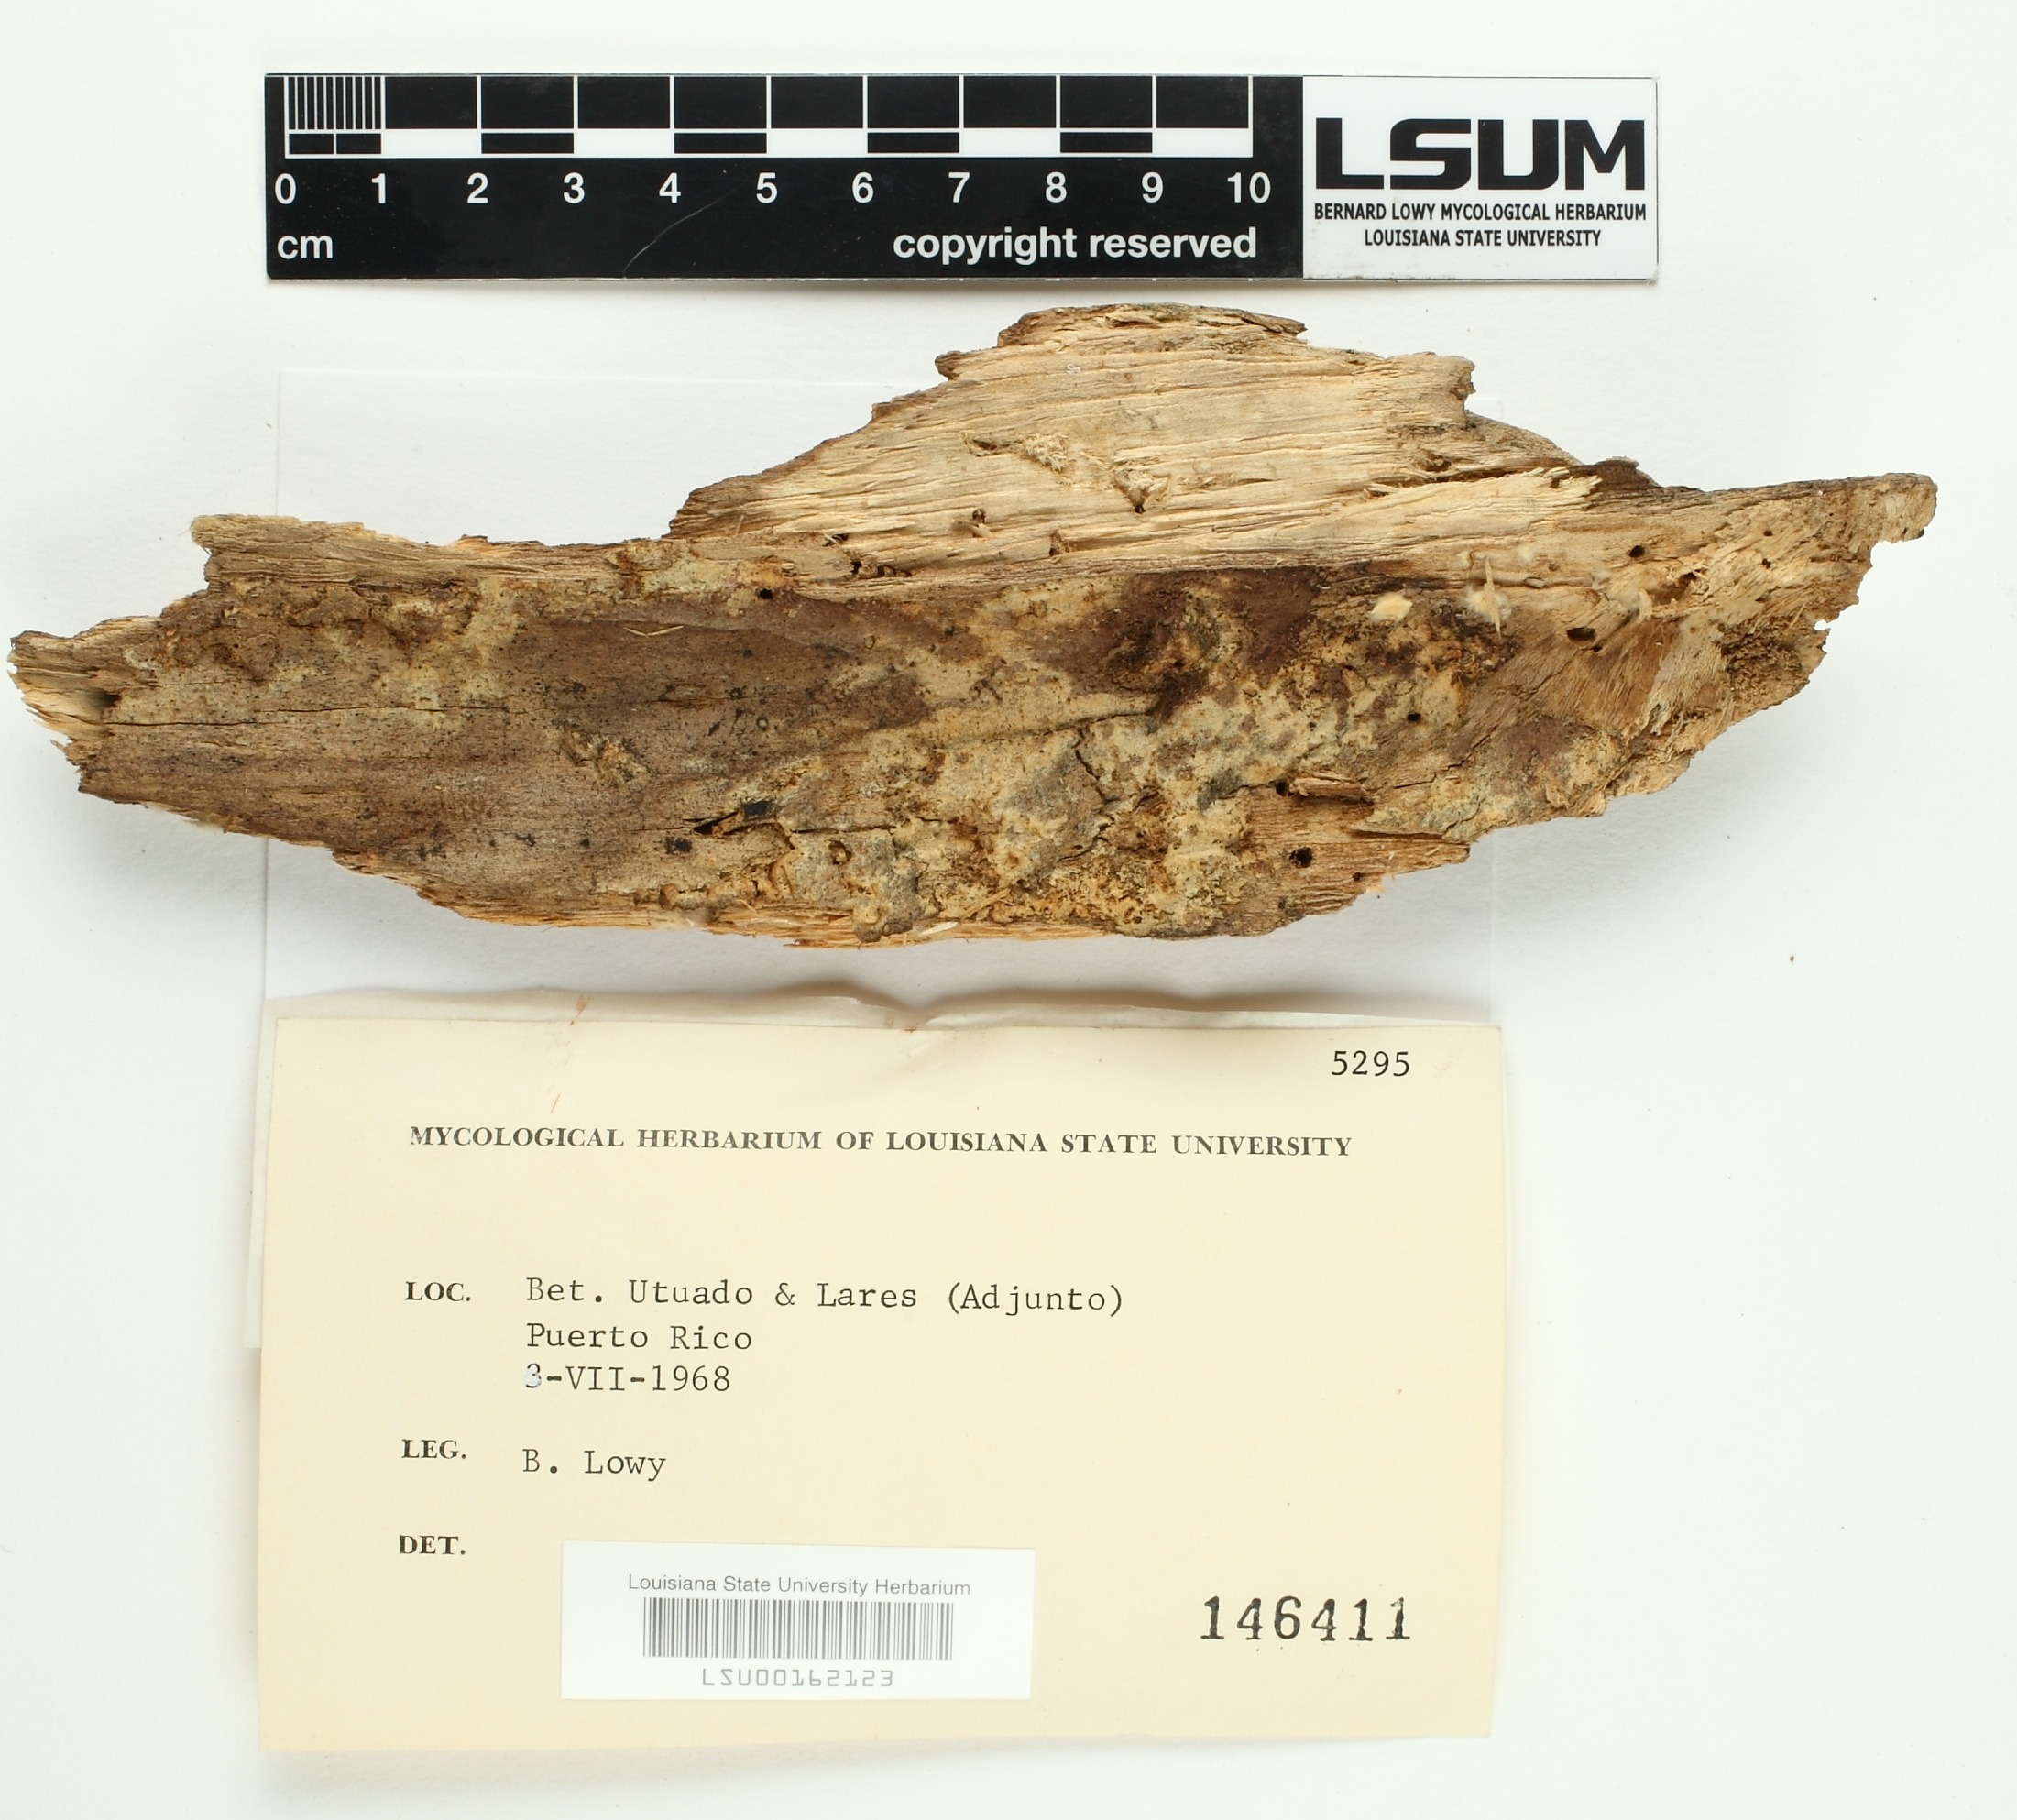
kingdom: Fungi
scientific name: Fungi
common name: Fungi
